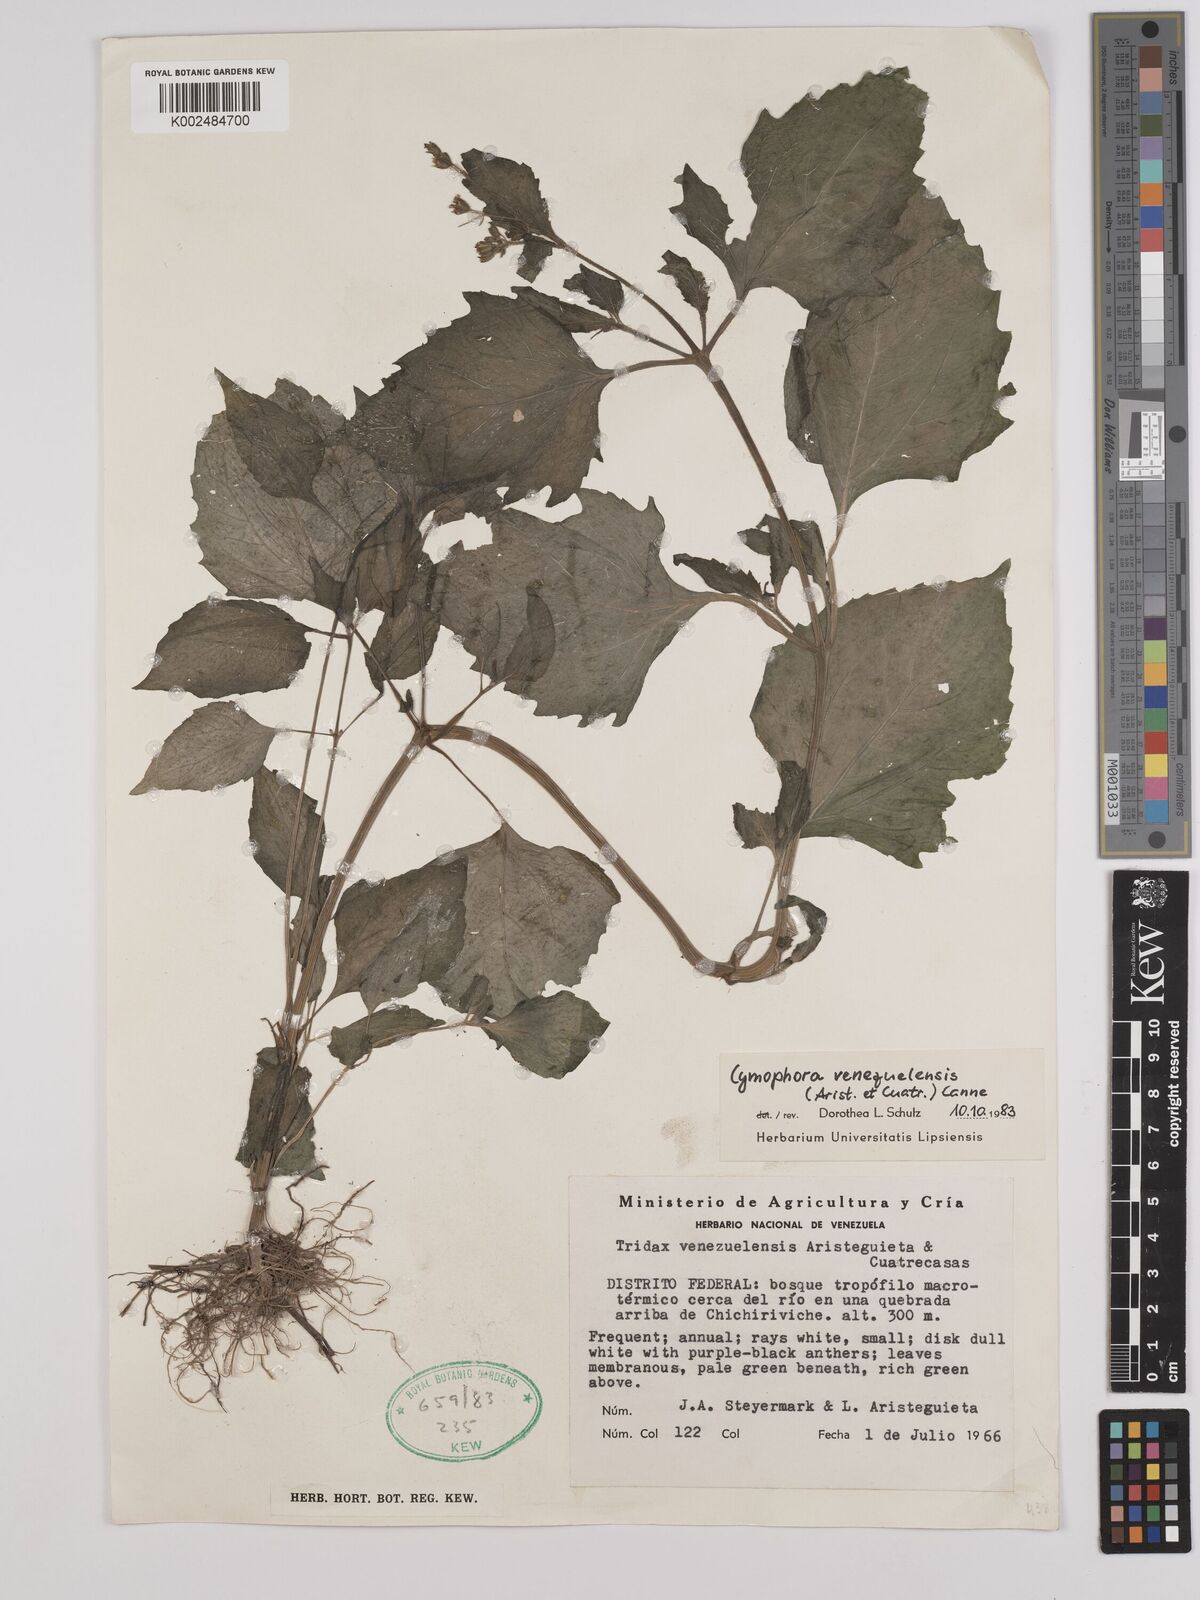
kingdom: Plantae
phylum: Tracheophyta
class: Magnoliopsida
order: Asterales
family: Asteraceae
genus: Cymophora
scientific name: Cymophora venezuelensis
